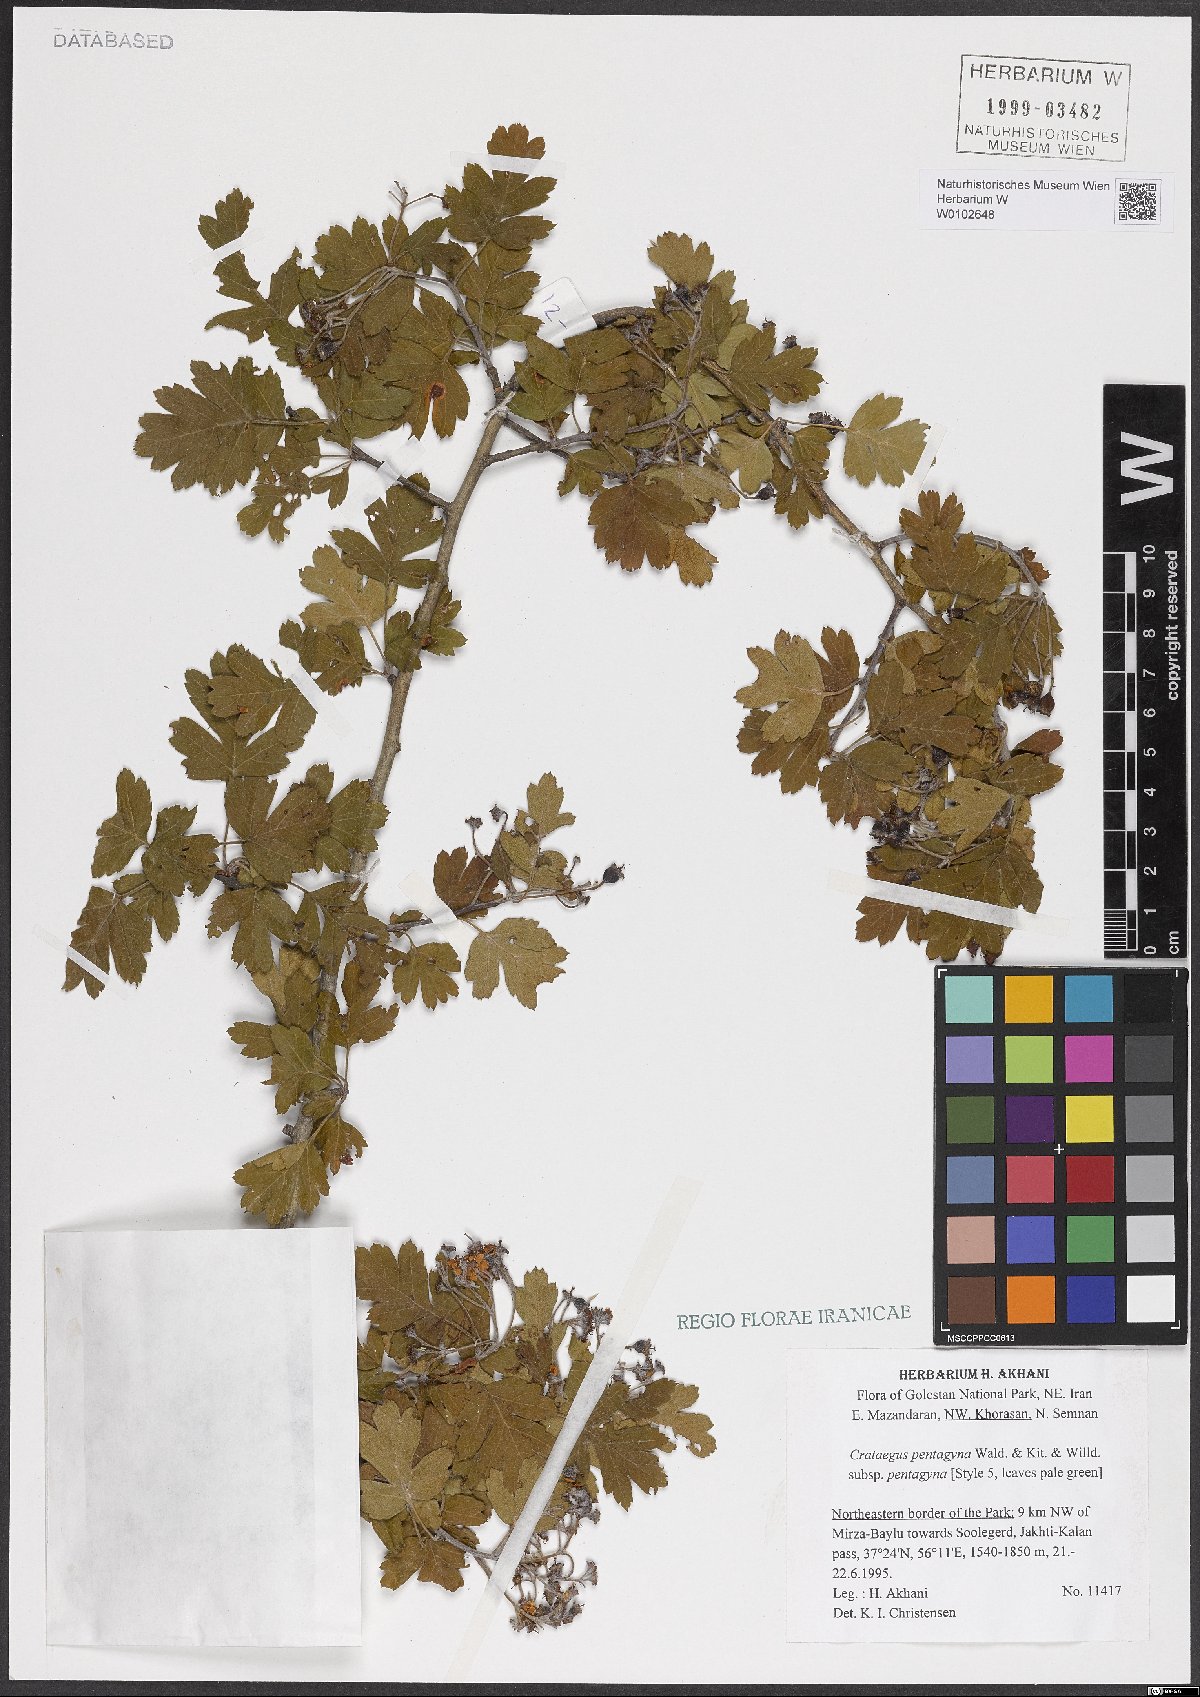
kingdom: Plantae
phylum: Tracheophyta
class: Magnoliopsida
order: Rosales
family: Rosaceae
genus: Crataegus
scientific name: Crataegus pentagyna
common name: Small-flowered black hawthorn
